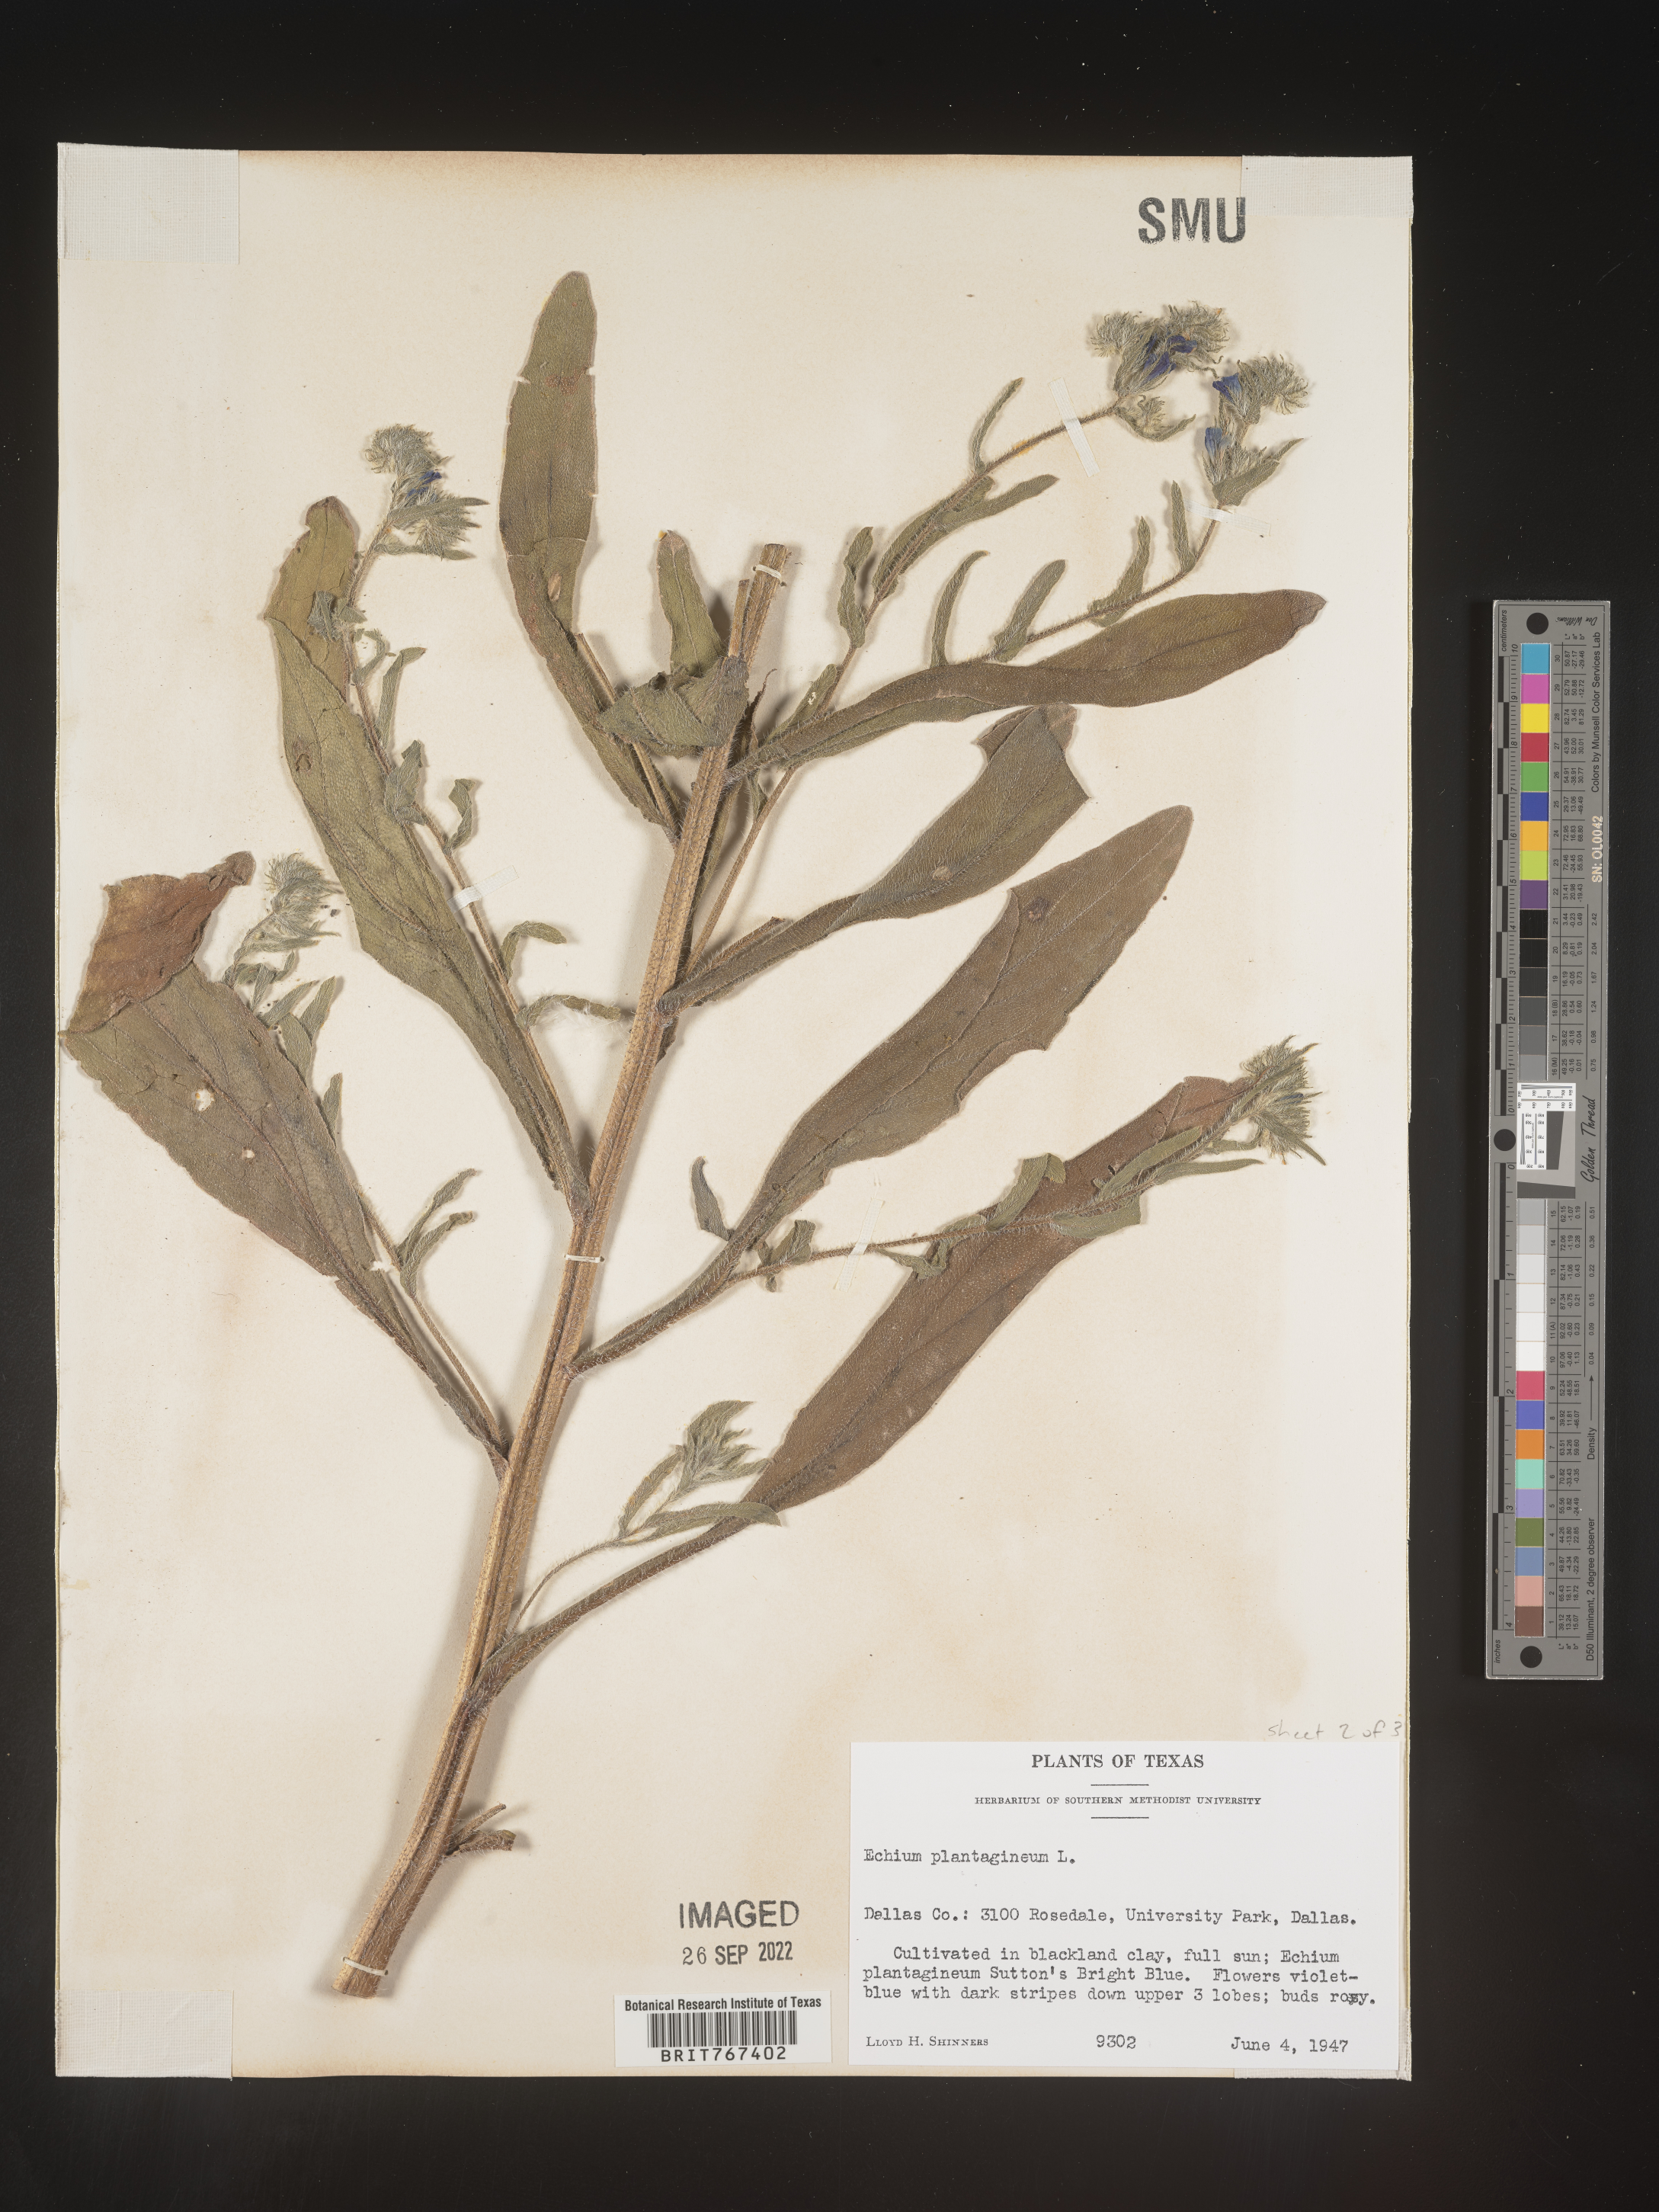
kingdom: Plantae
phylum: Tracheophyta
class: Magnoliopsida
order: Boraginales
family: Boraginaceae
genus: Echium
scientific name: Echium
